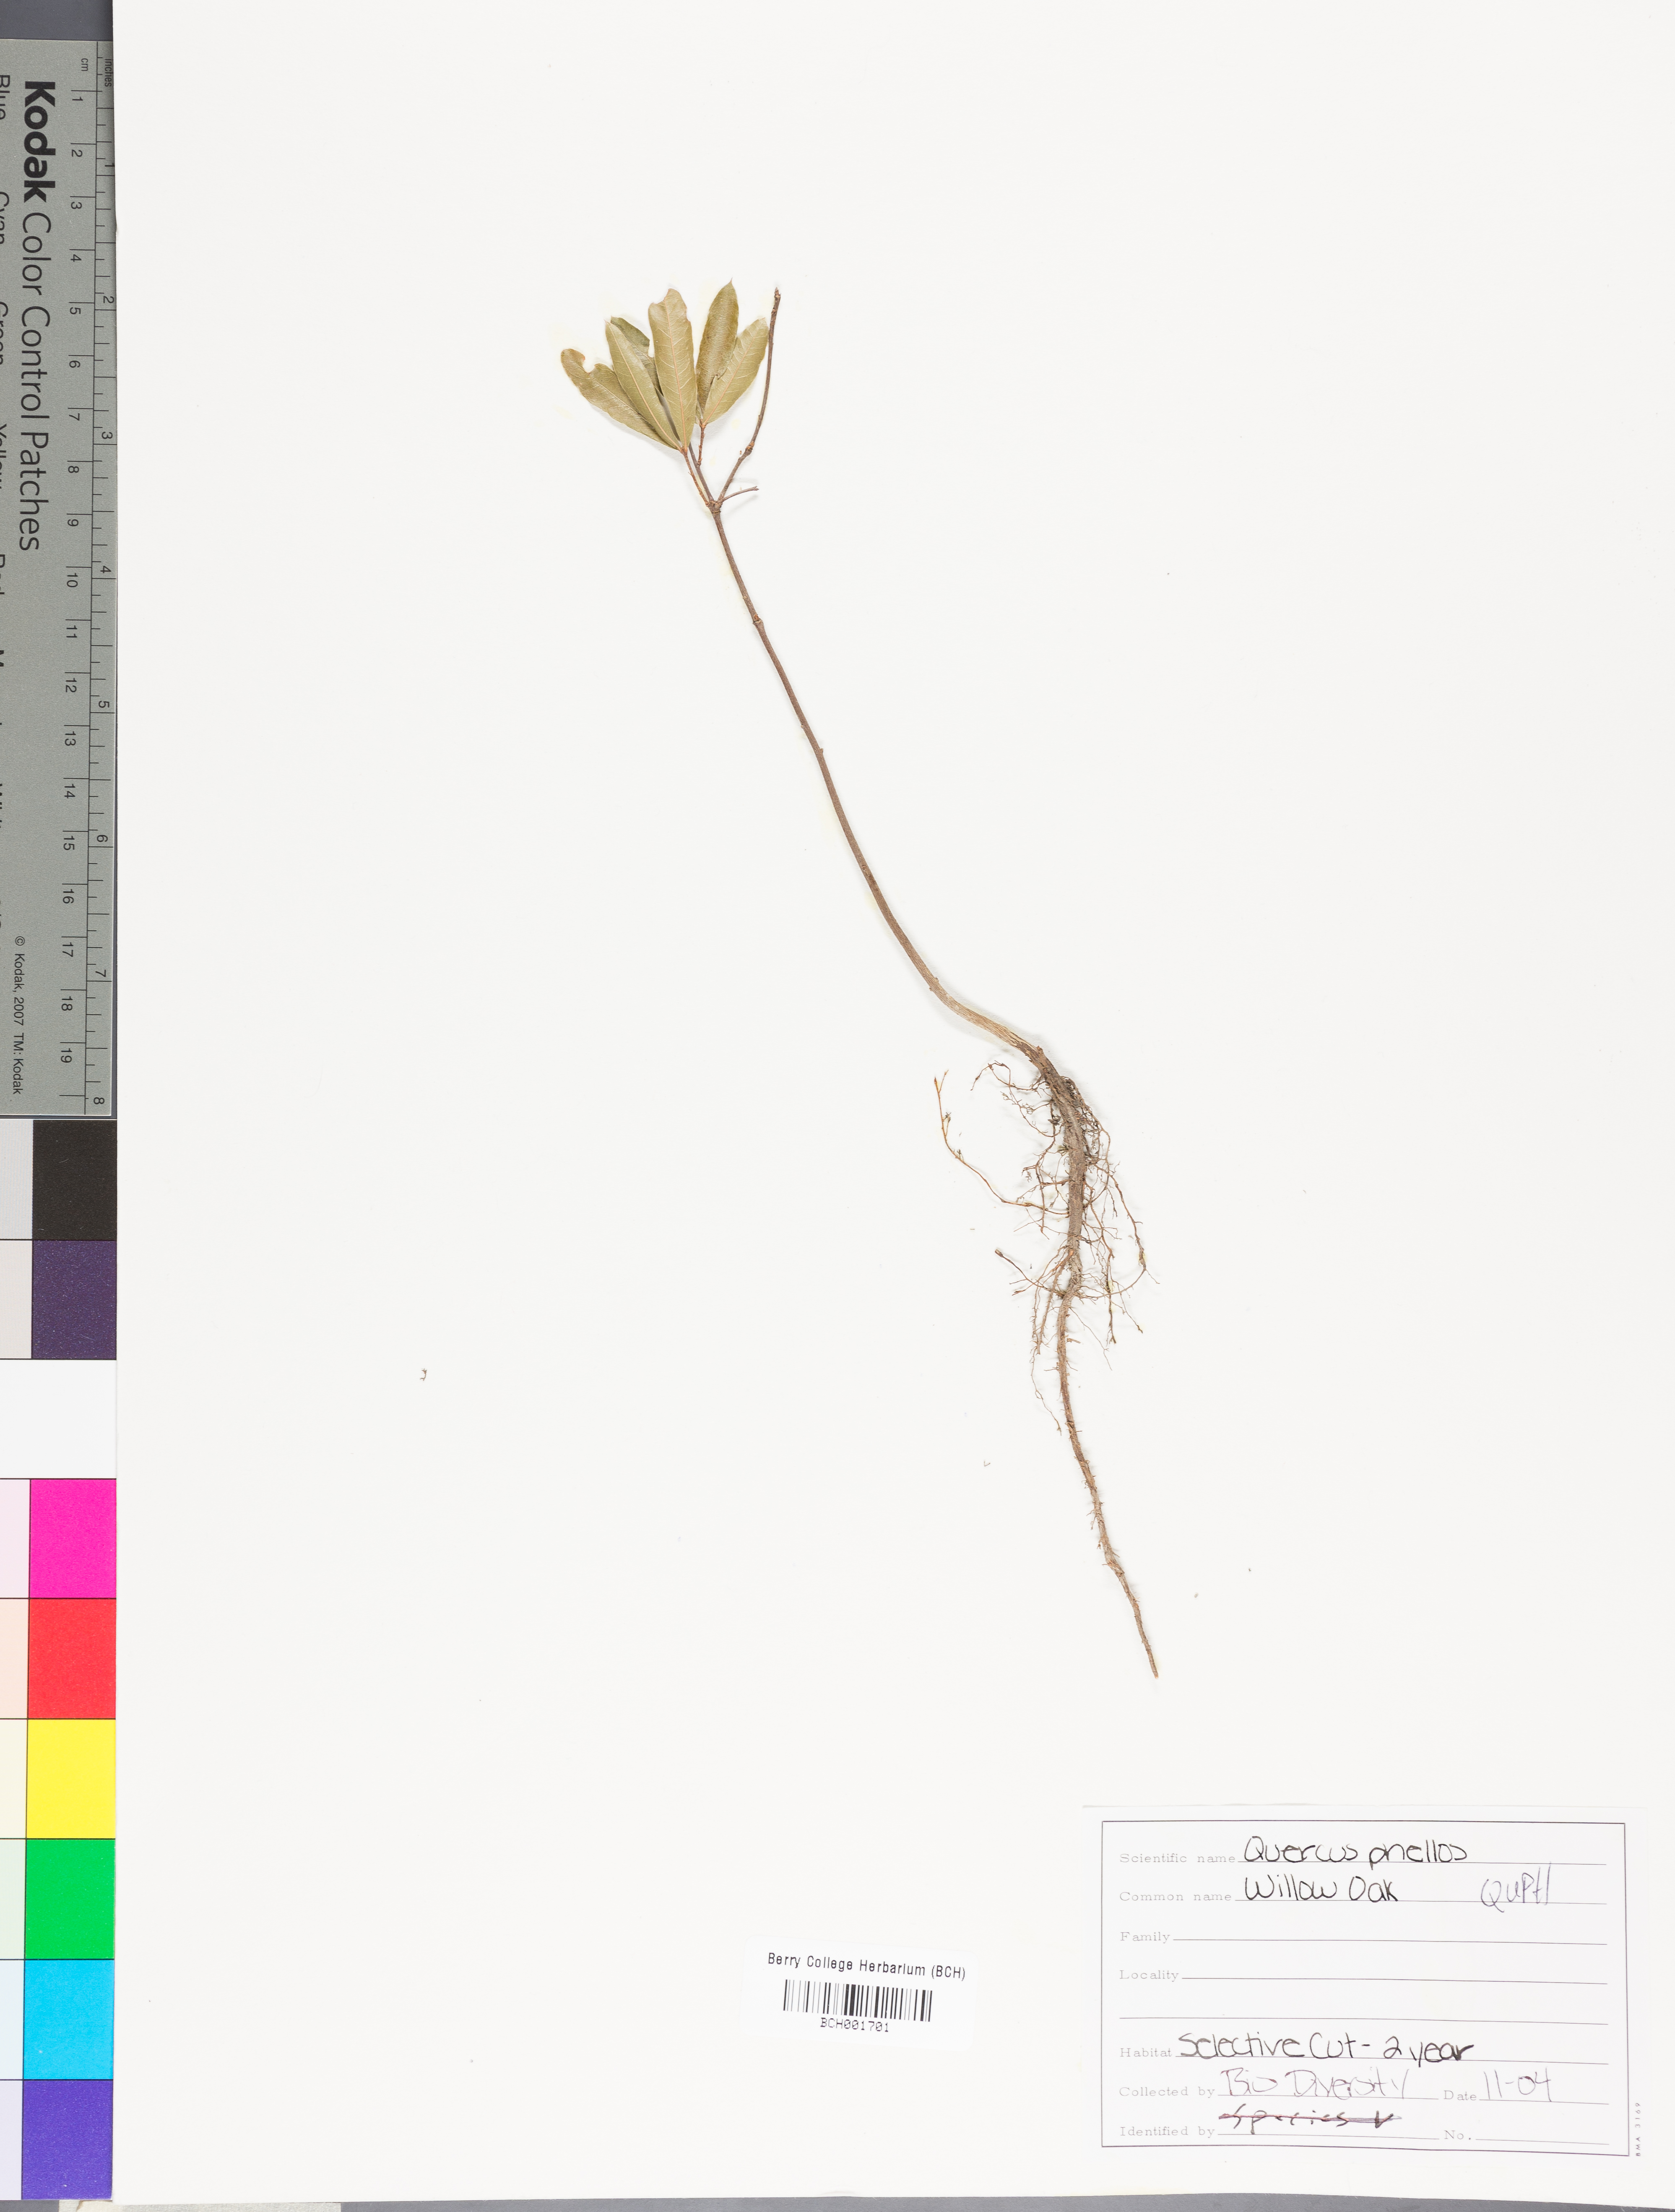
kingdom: Plantae
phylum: Tracheophyta
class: Magnoliopsida
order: Fagales
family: Fagaceae
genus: Quercus
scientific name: Quercus phellos
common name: Willow oak
